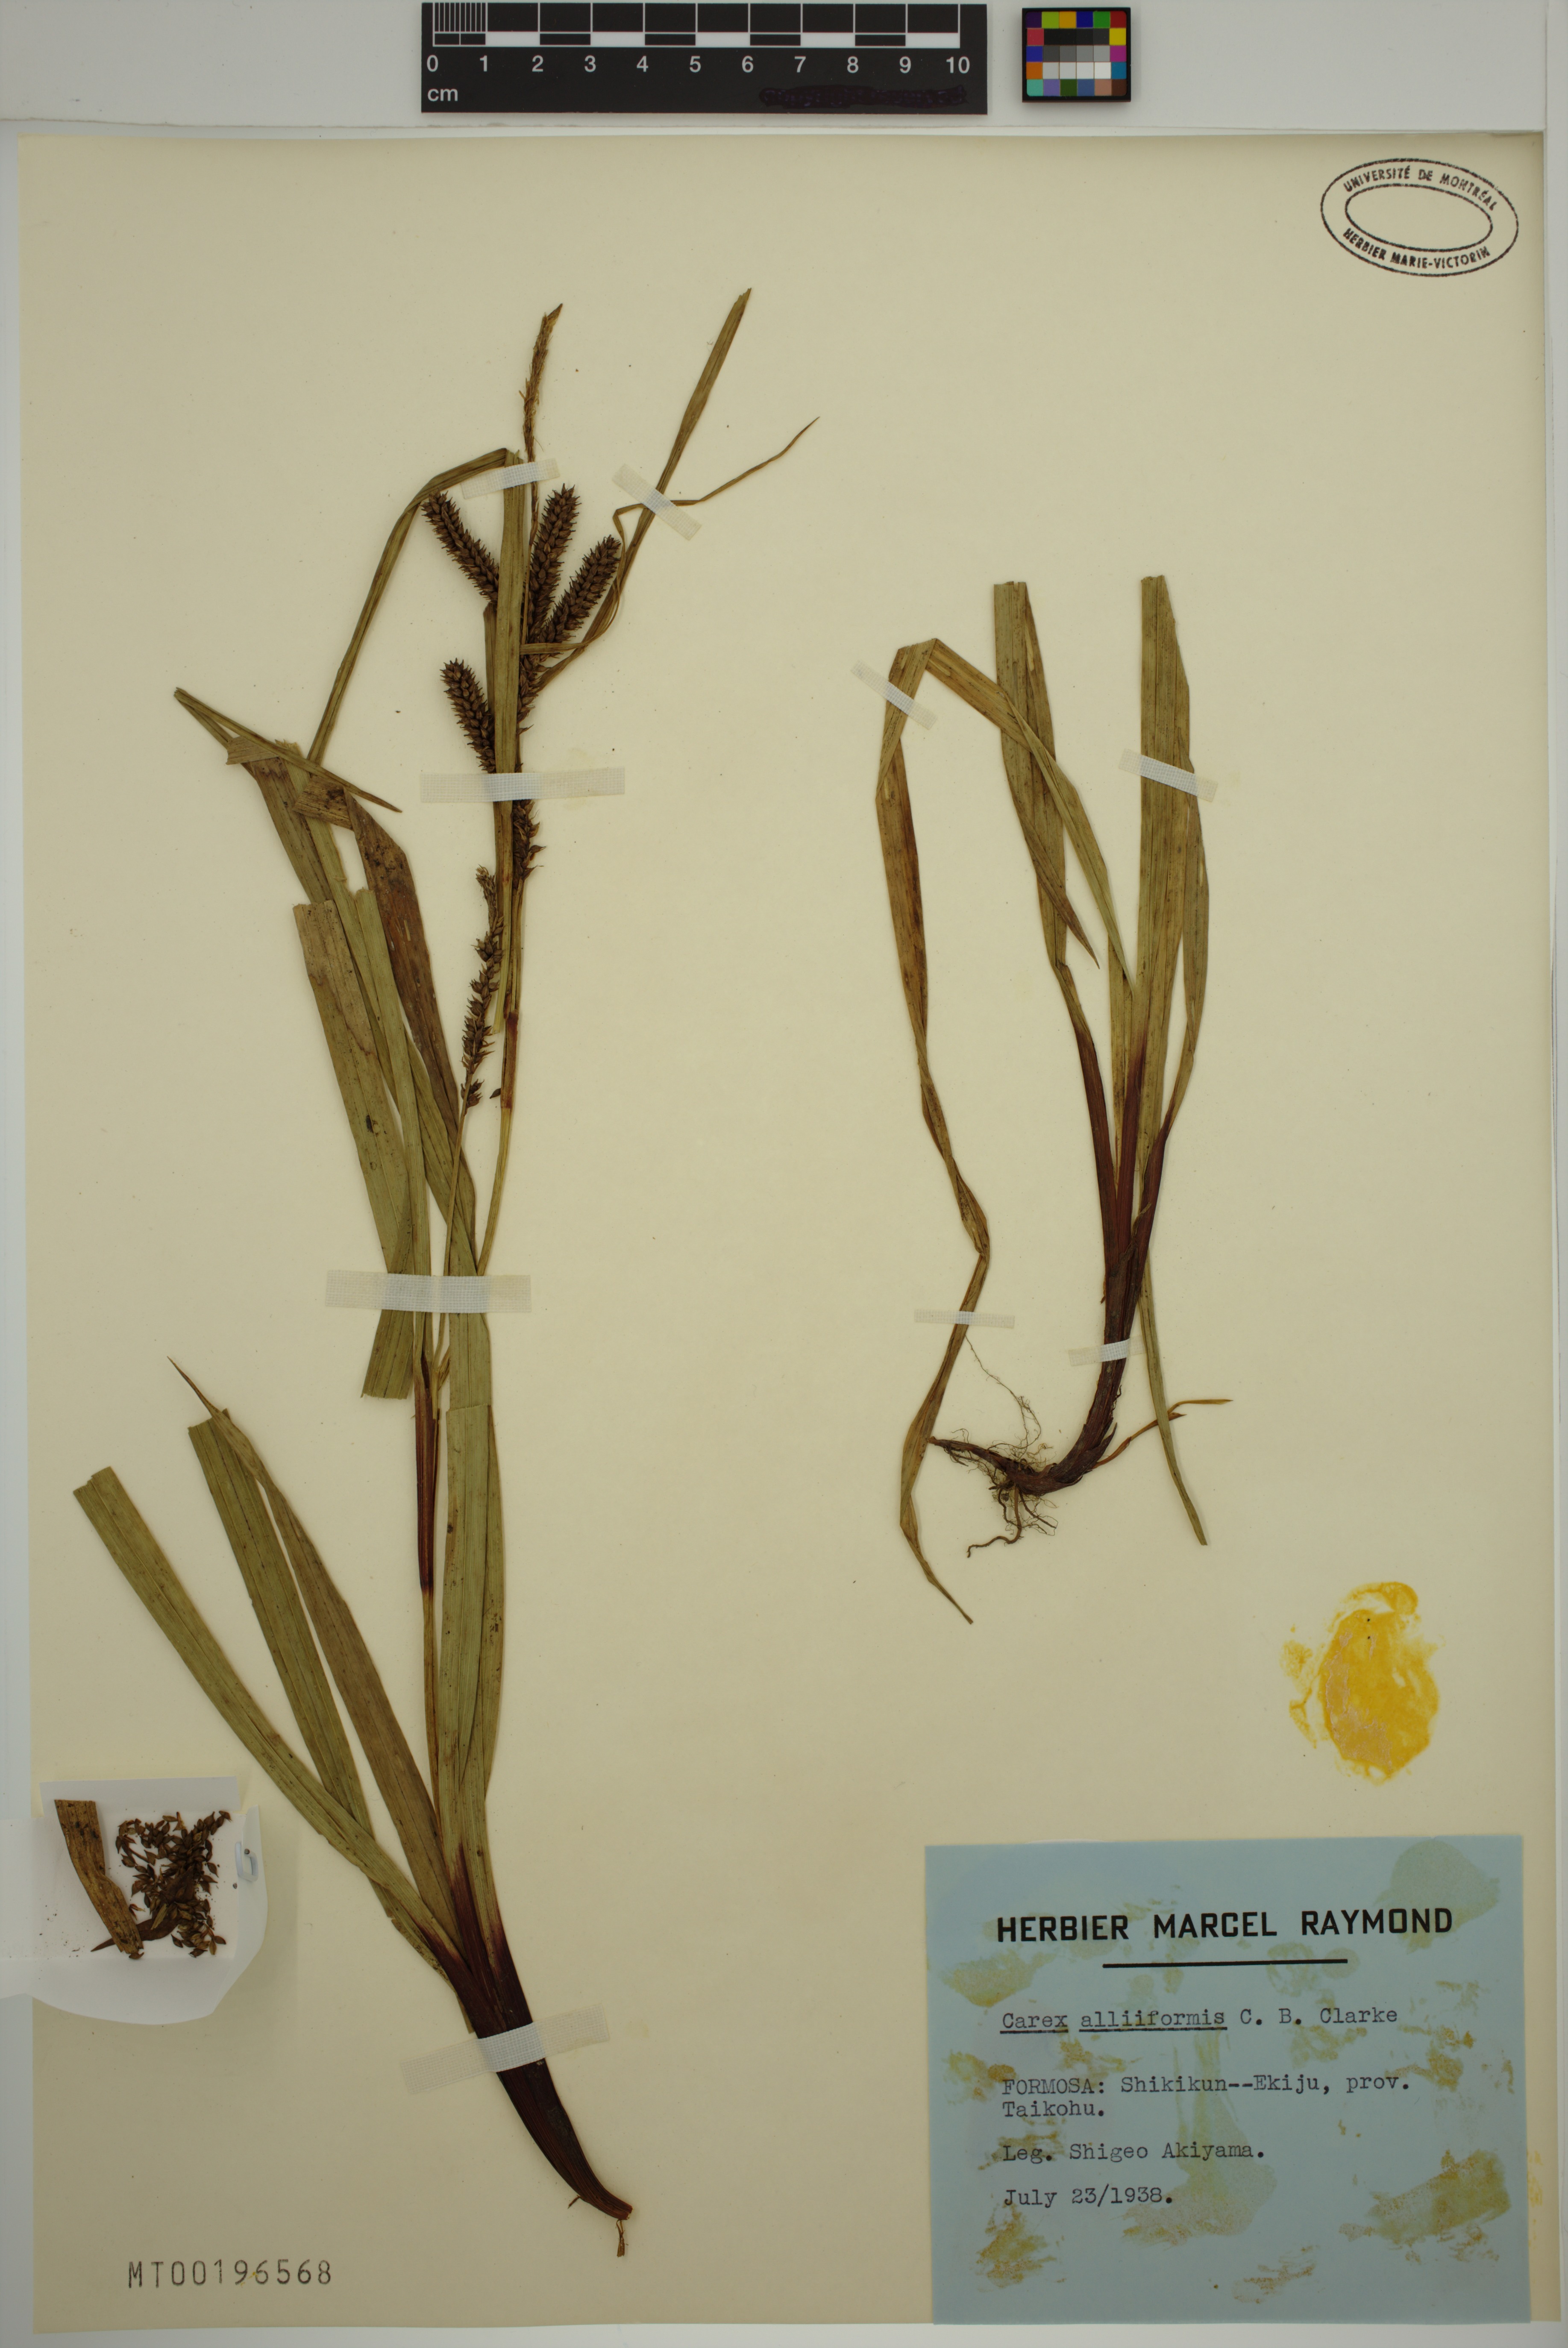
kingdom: Plantae
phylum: Tracheophyta
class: Liliopsida
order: Poales
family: Cyperaceae
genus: Carex
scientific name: Carex alliiformis
